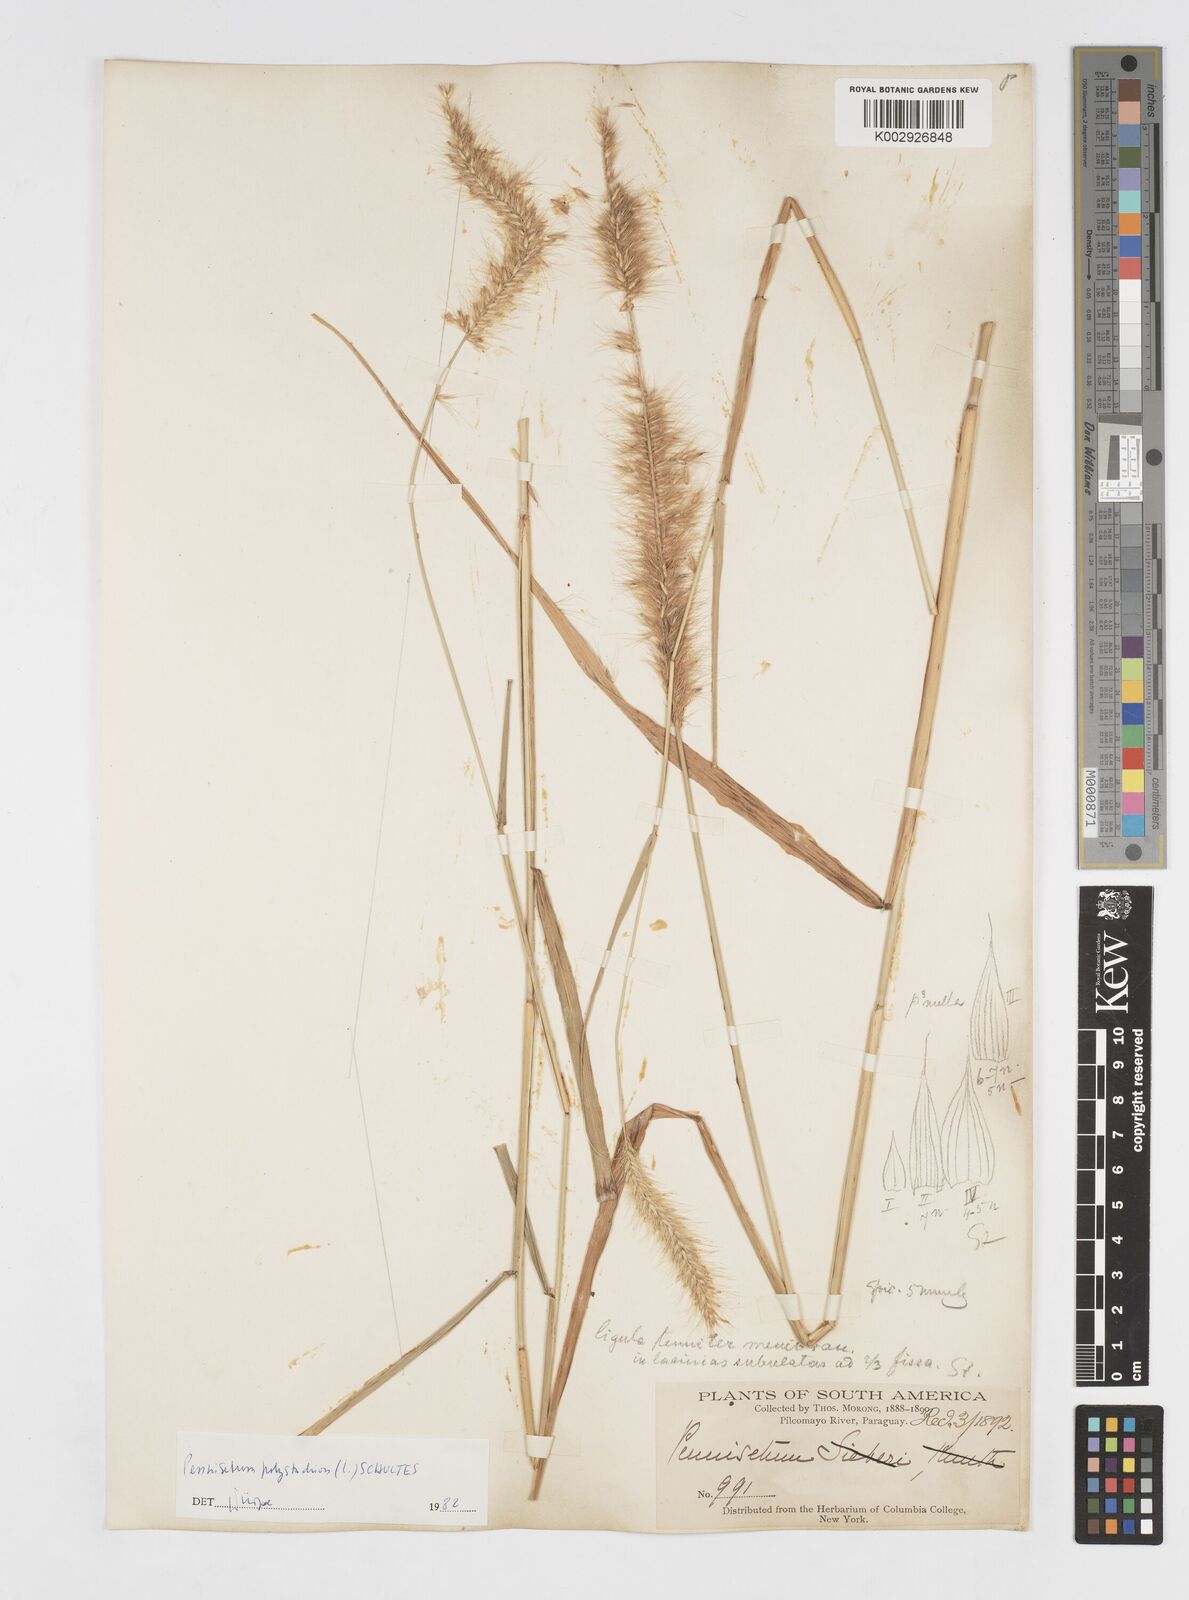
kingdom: Plantae
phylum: Tracheophyta
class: Liliopsida
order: Poales
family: Poaceae
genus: Cenchrus
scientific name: Cenchrus nervosus
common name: Bentspike fountaingrass
